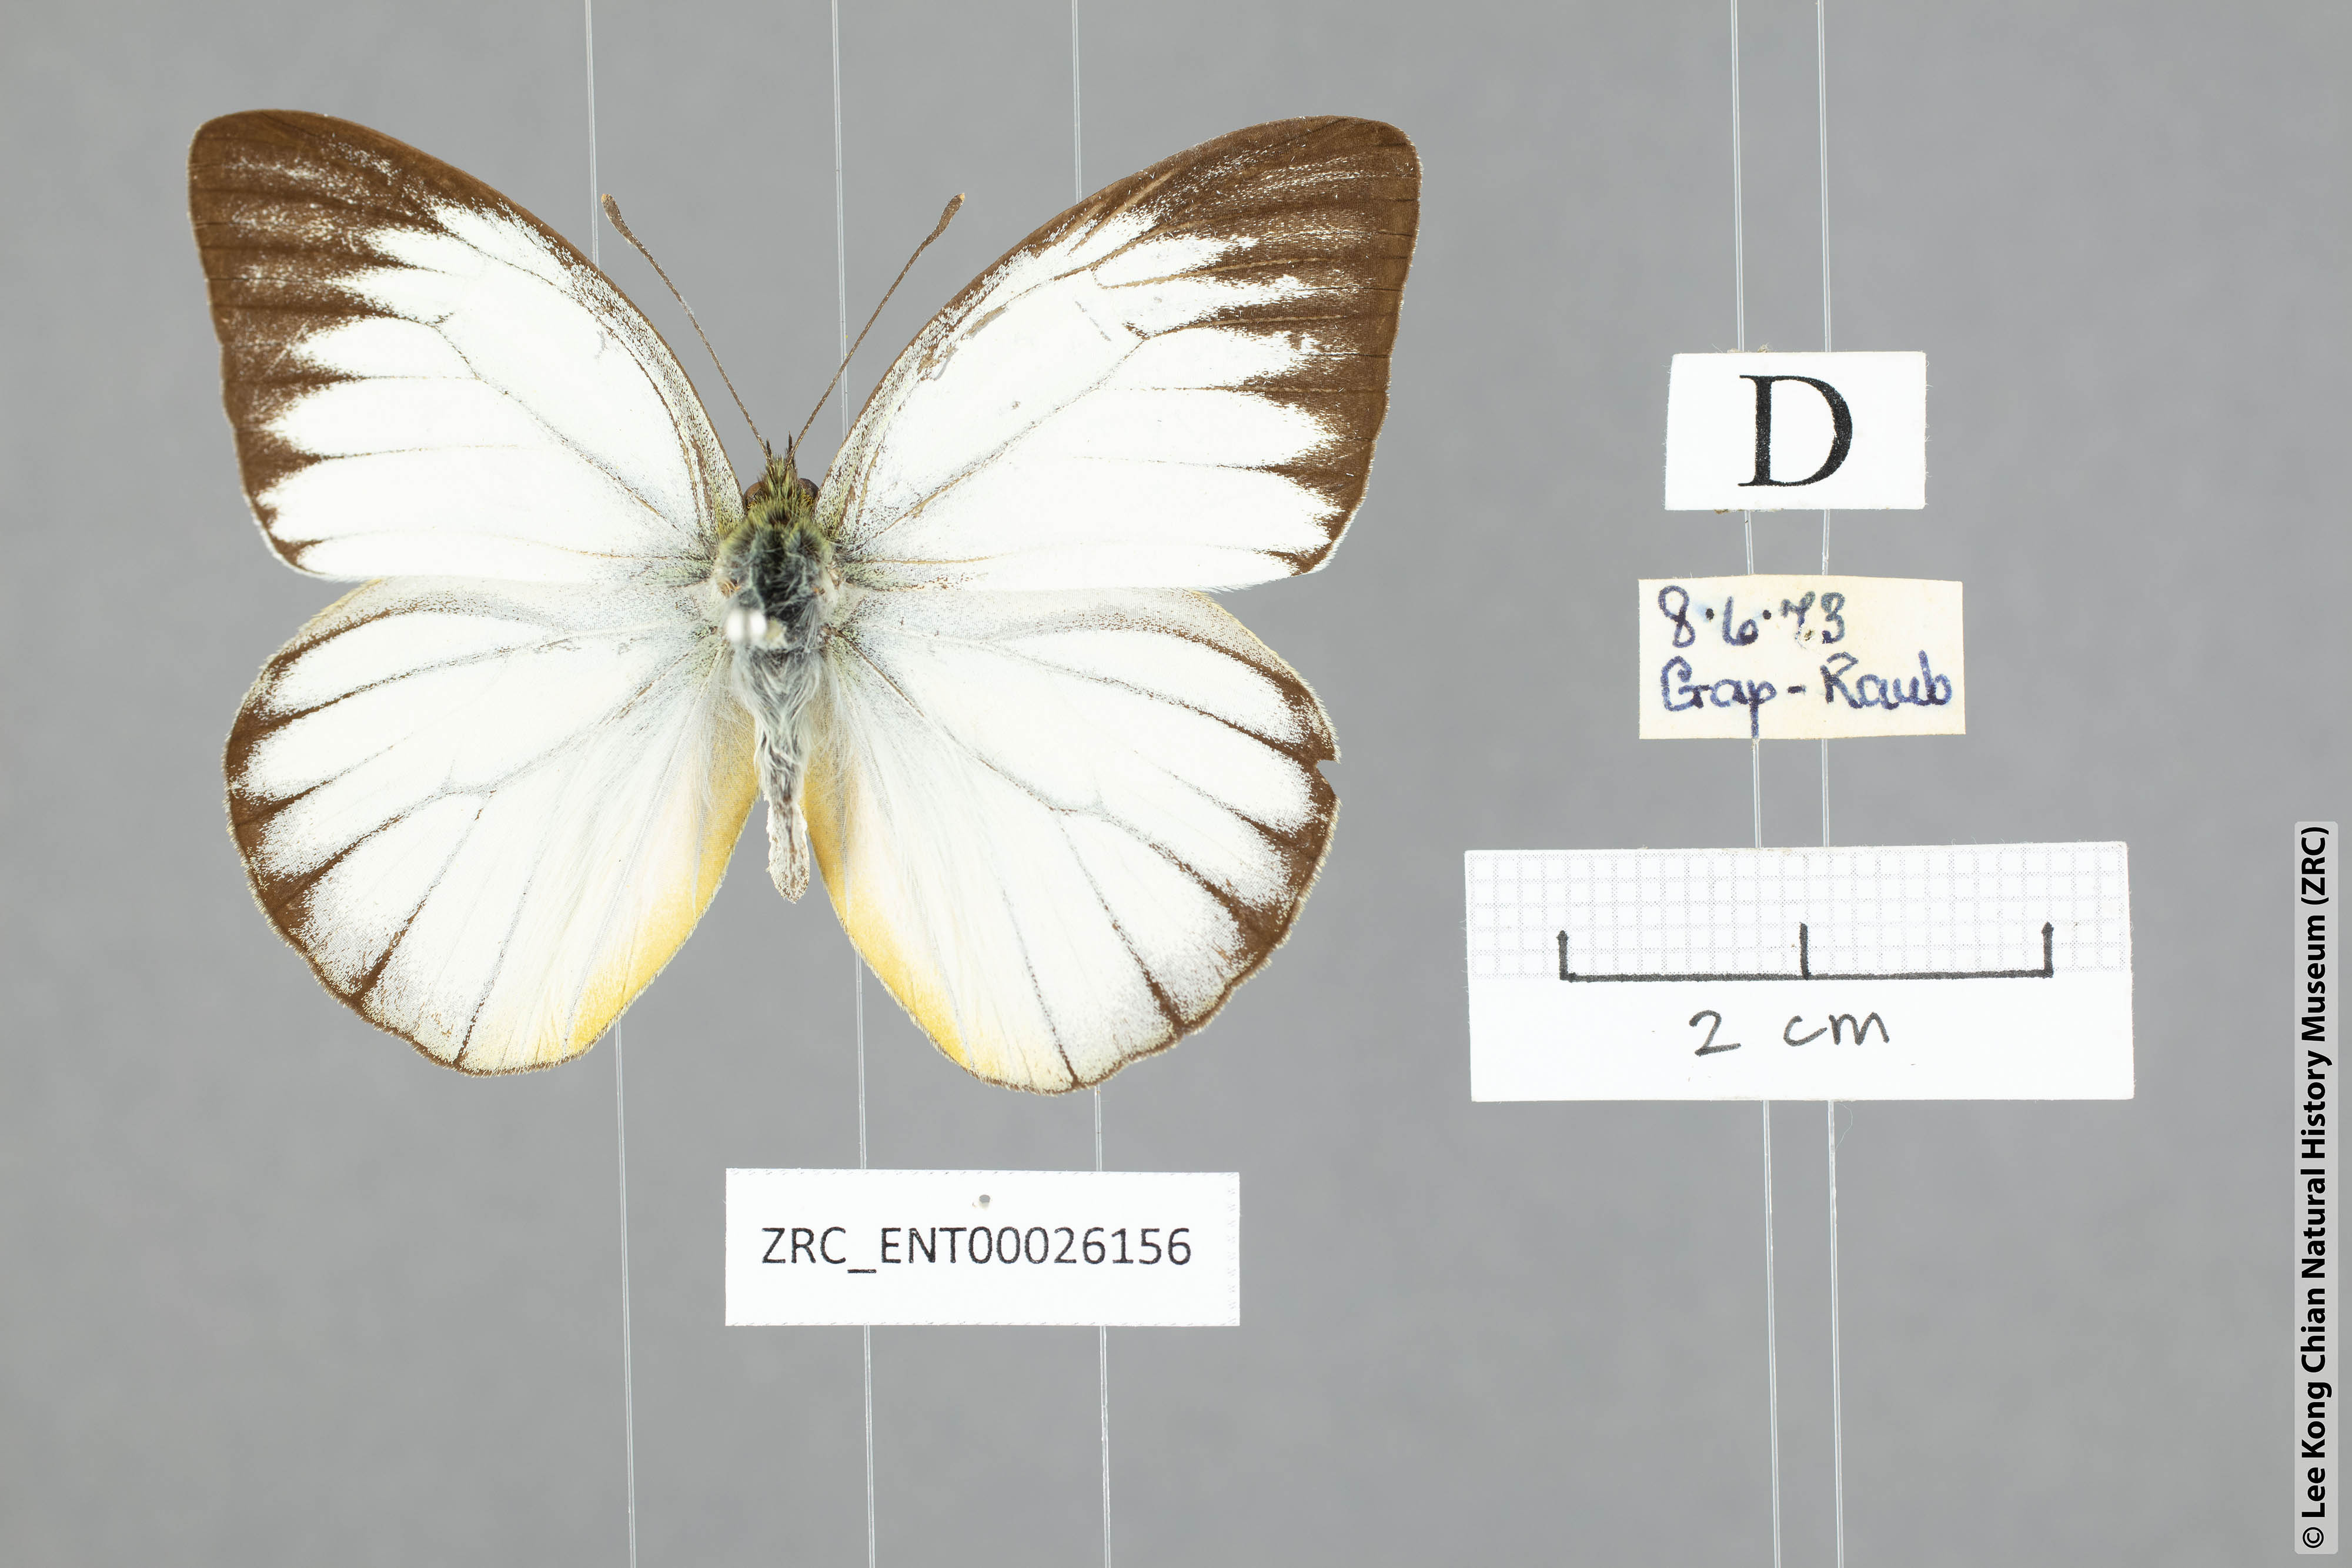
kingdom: Animalia
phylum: Arthropoda
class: Insecta
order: Lepidoptera
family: Pieridae
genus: Cepora
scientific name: Cepora nadina
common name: Lesser gull
